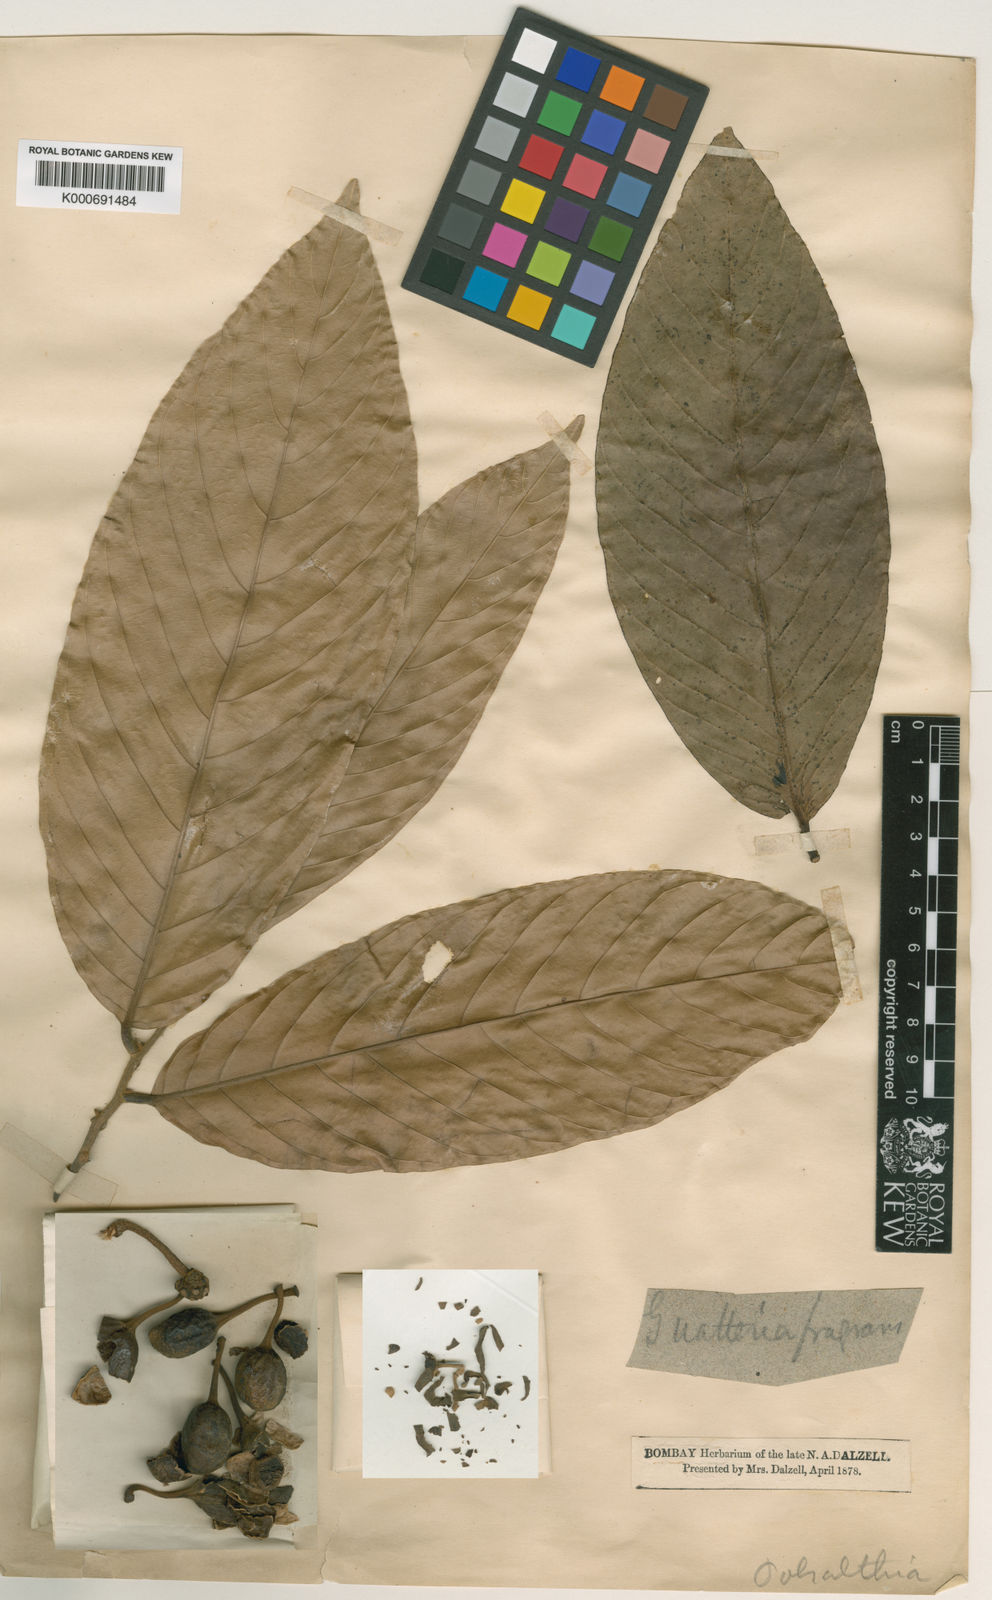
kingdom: Plantae
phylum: Tracheophyta
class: Magnoliopsida
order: Magnoliales
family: Annonaceae
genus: Polyalthia
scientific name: Polyalthia
